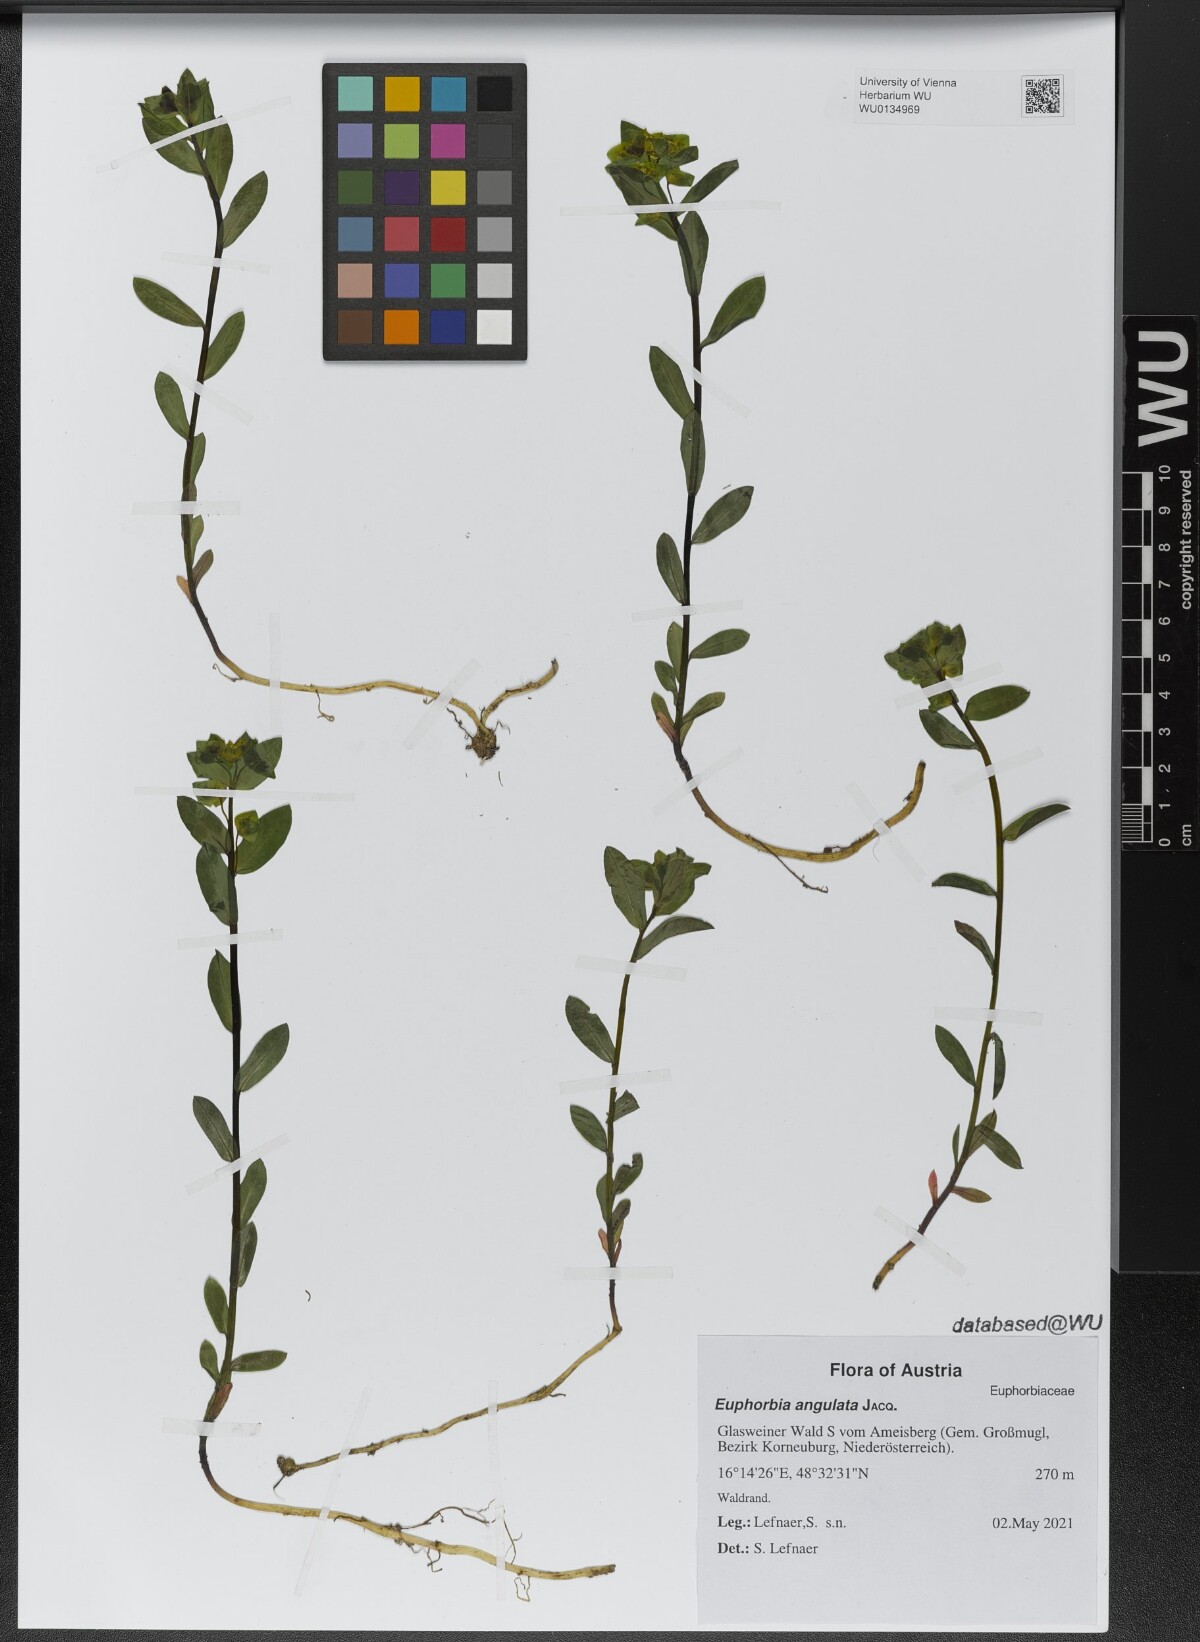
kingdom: Plantae
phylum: Tracheophyta
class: Magnoliopsida
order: Malpighiales
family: Euphorbiaceae
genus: Euphorbia
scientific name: Euphorbia angulata
